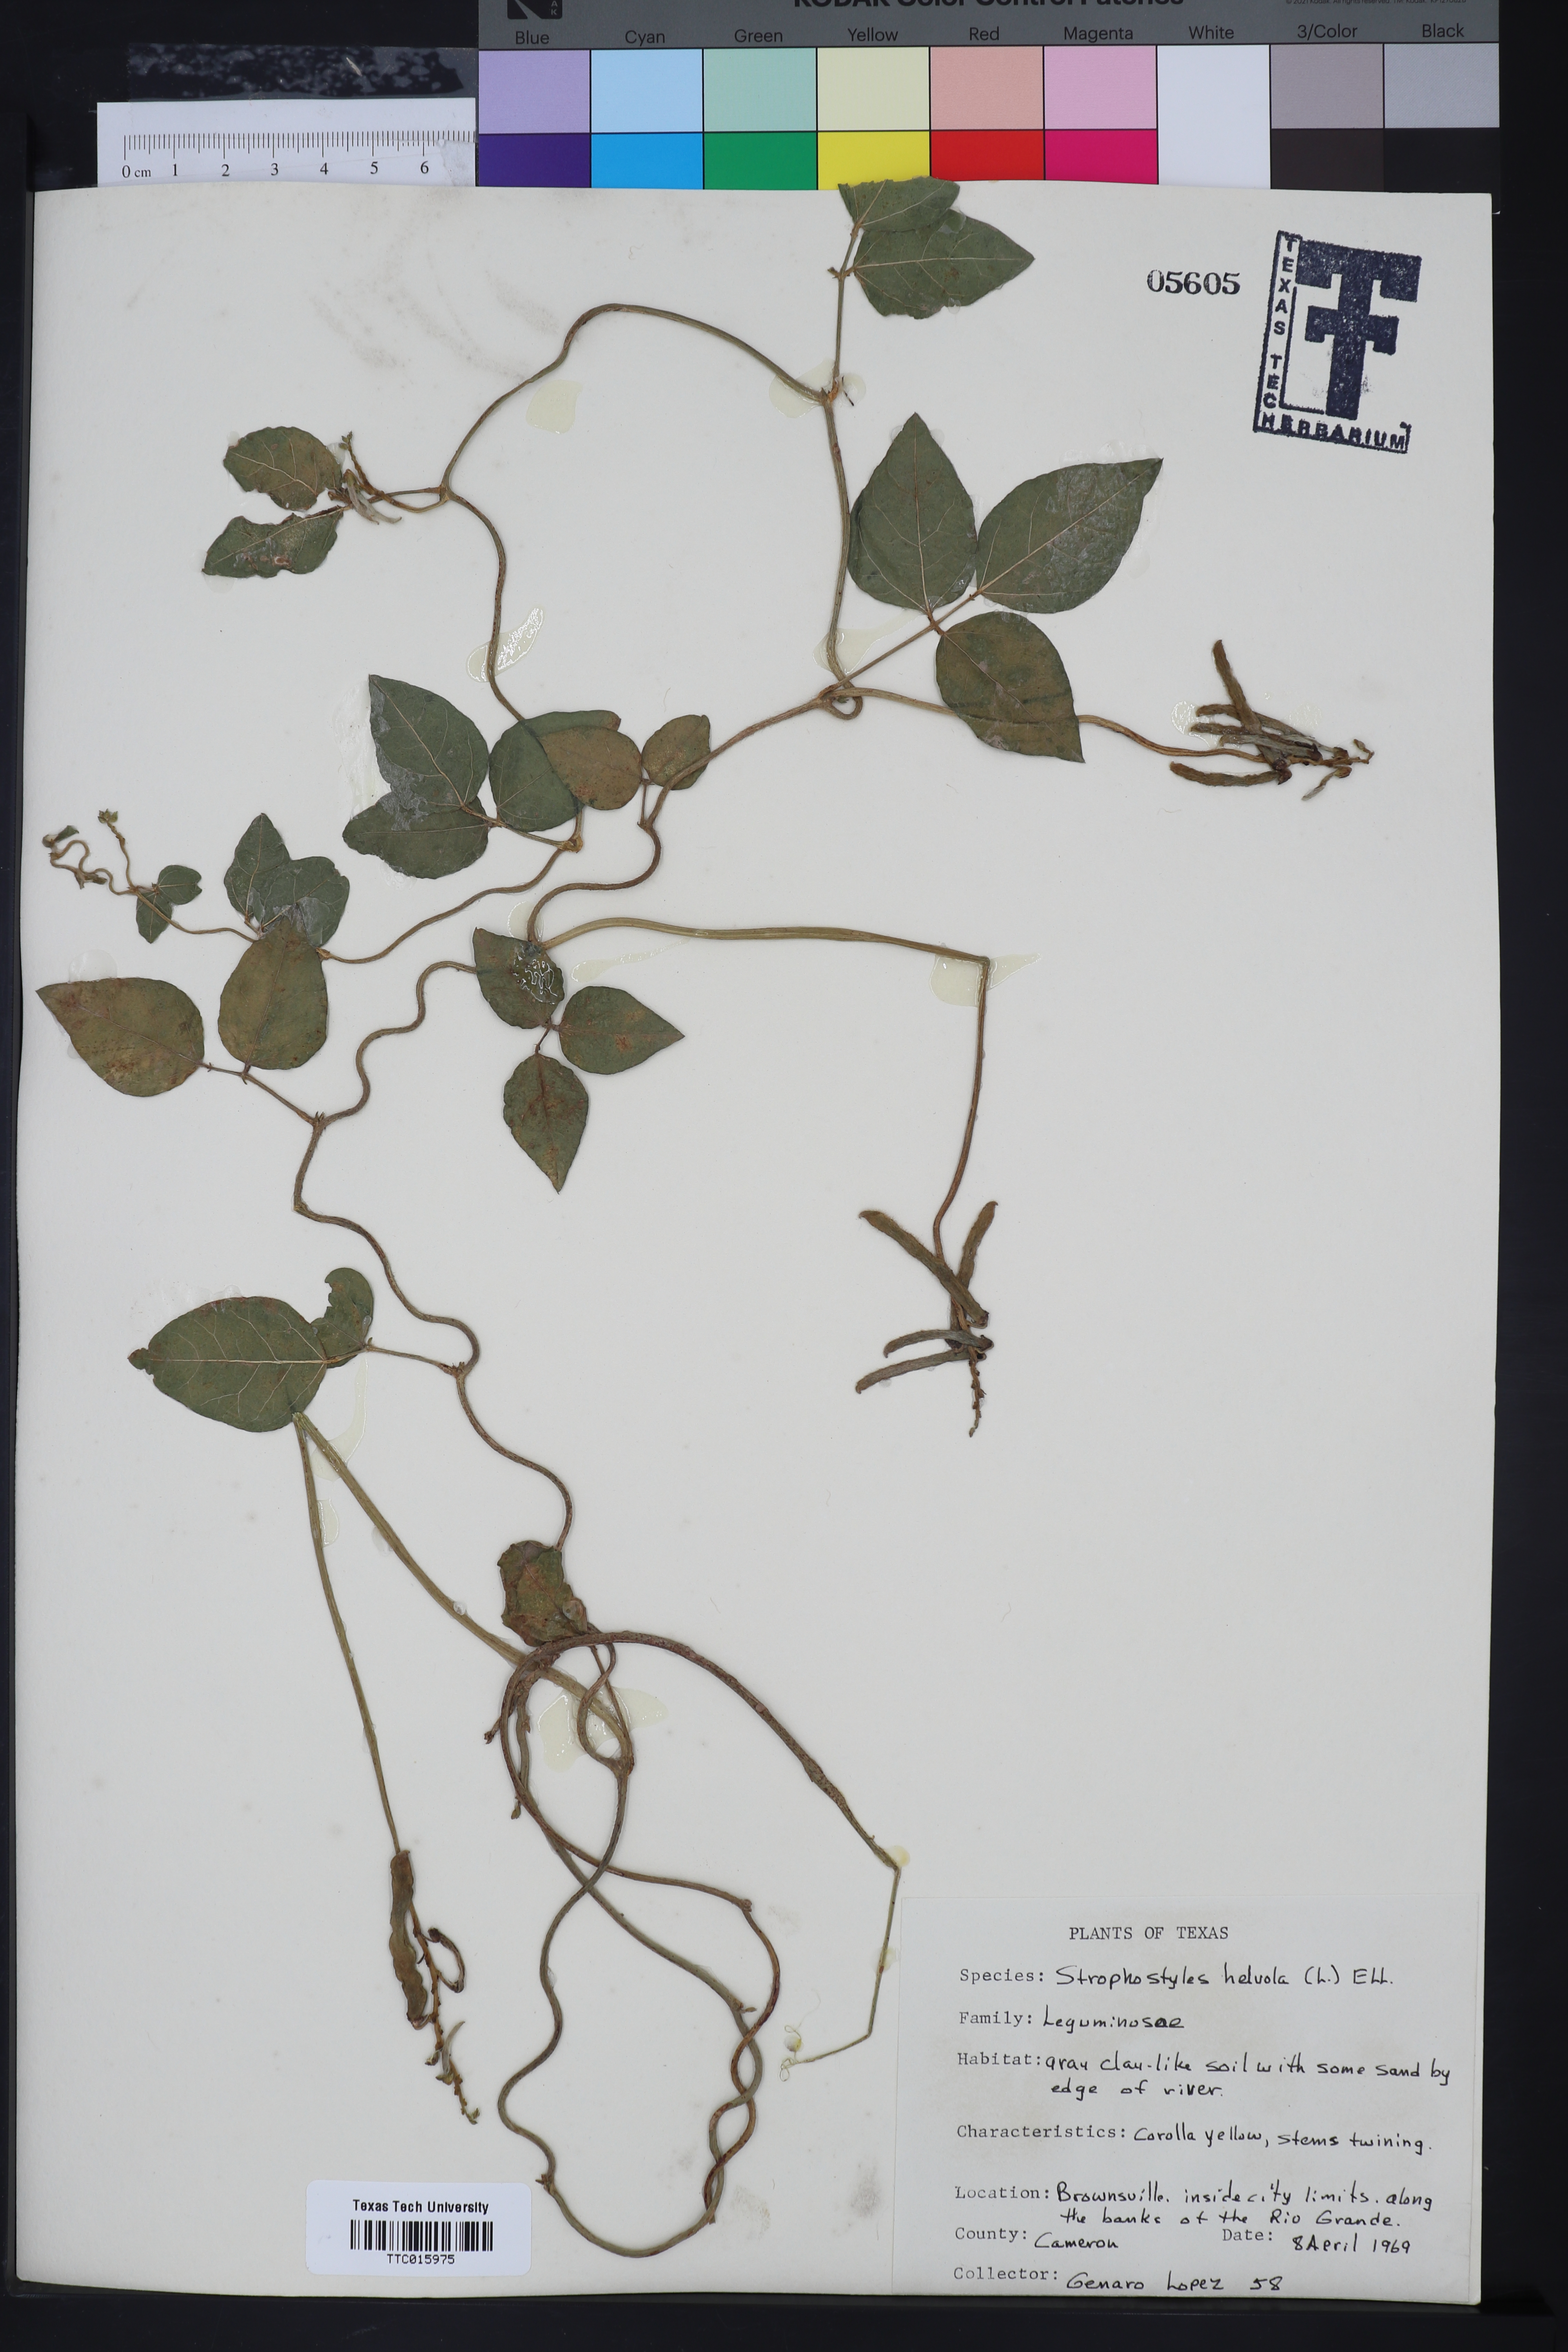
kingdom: Plantae
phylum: Tracheophyta
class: Magnoliopsida
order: Fabales
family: Fabaceae
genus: Strophostyles
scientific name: Strophostyles helvola
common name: Trailing wild bean
